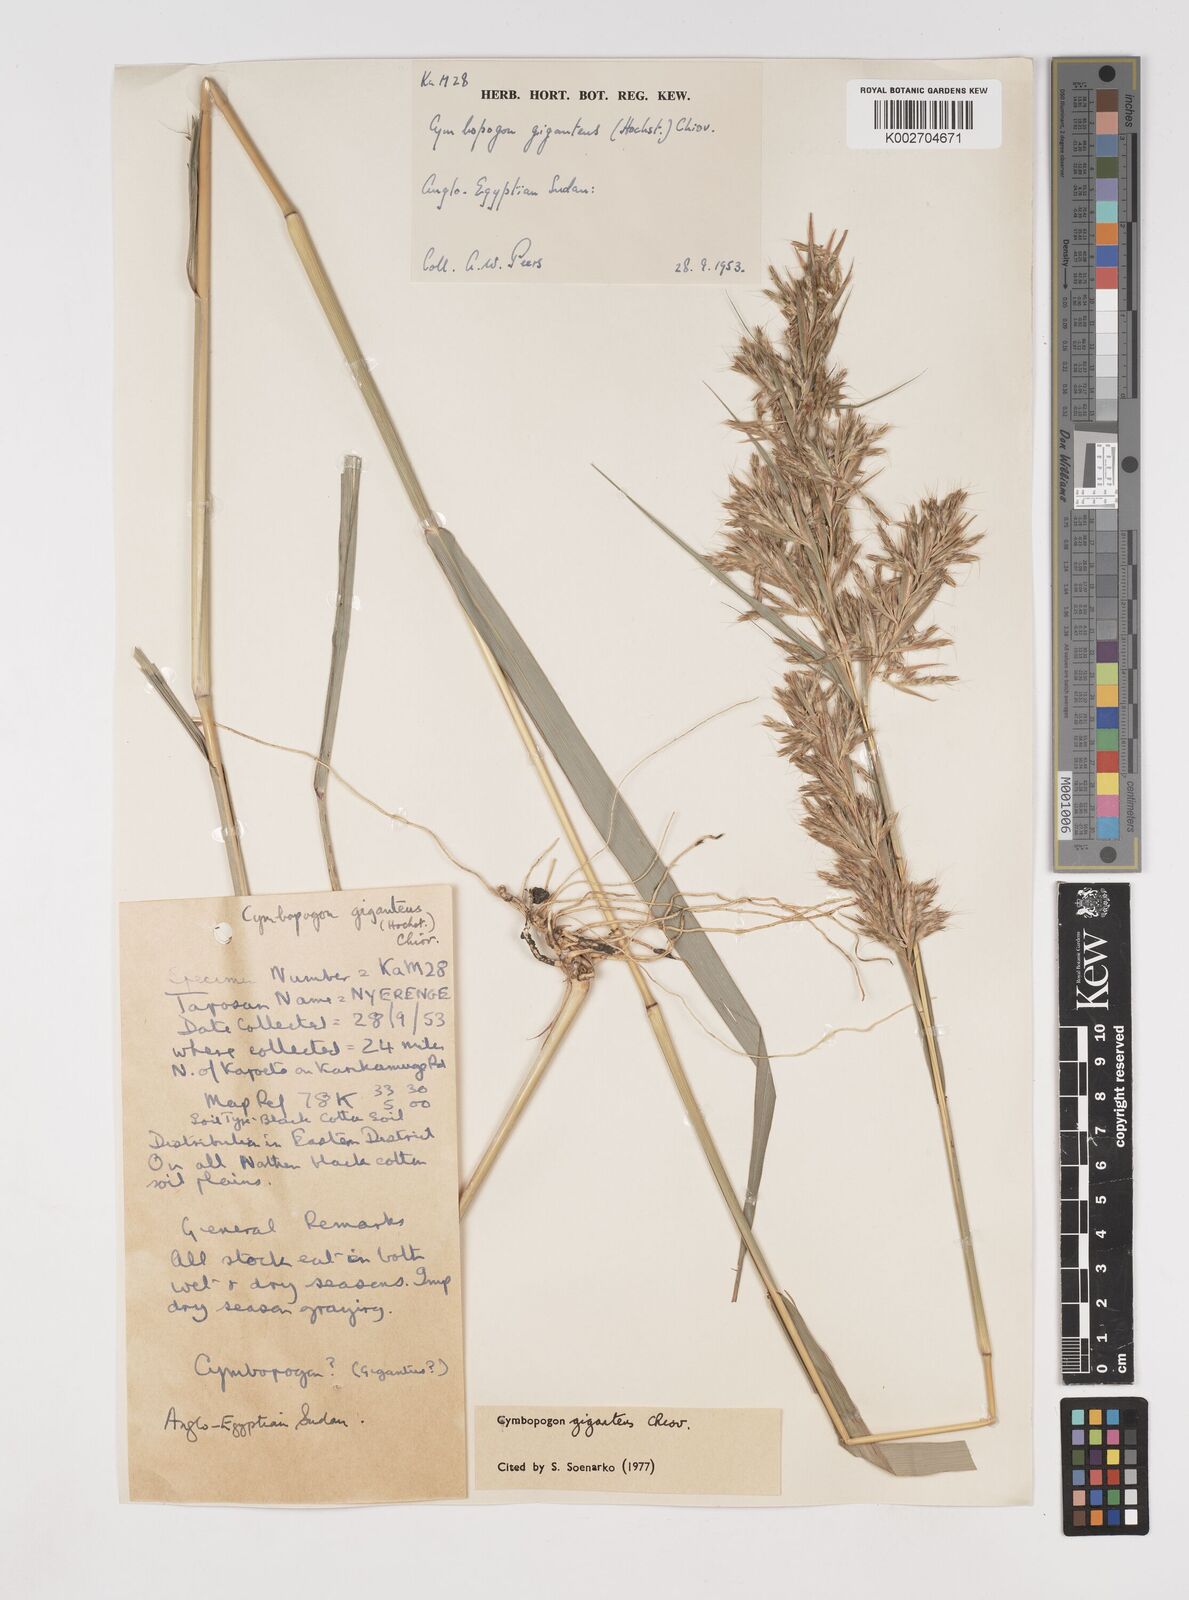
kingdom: Plantae
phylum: Tracheophyta
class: Liliopsida
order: Poales
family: Poaceae
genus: Cymbopogon
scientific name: Cymbopogon giganteus
